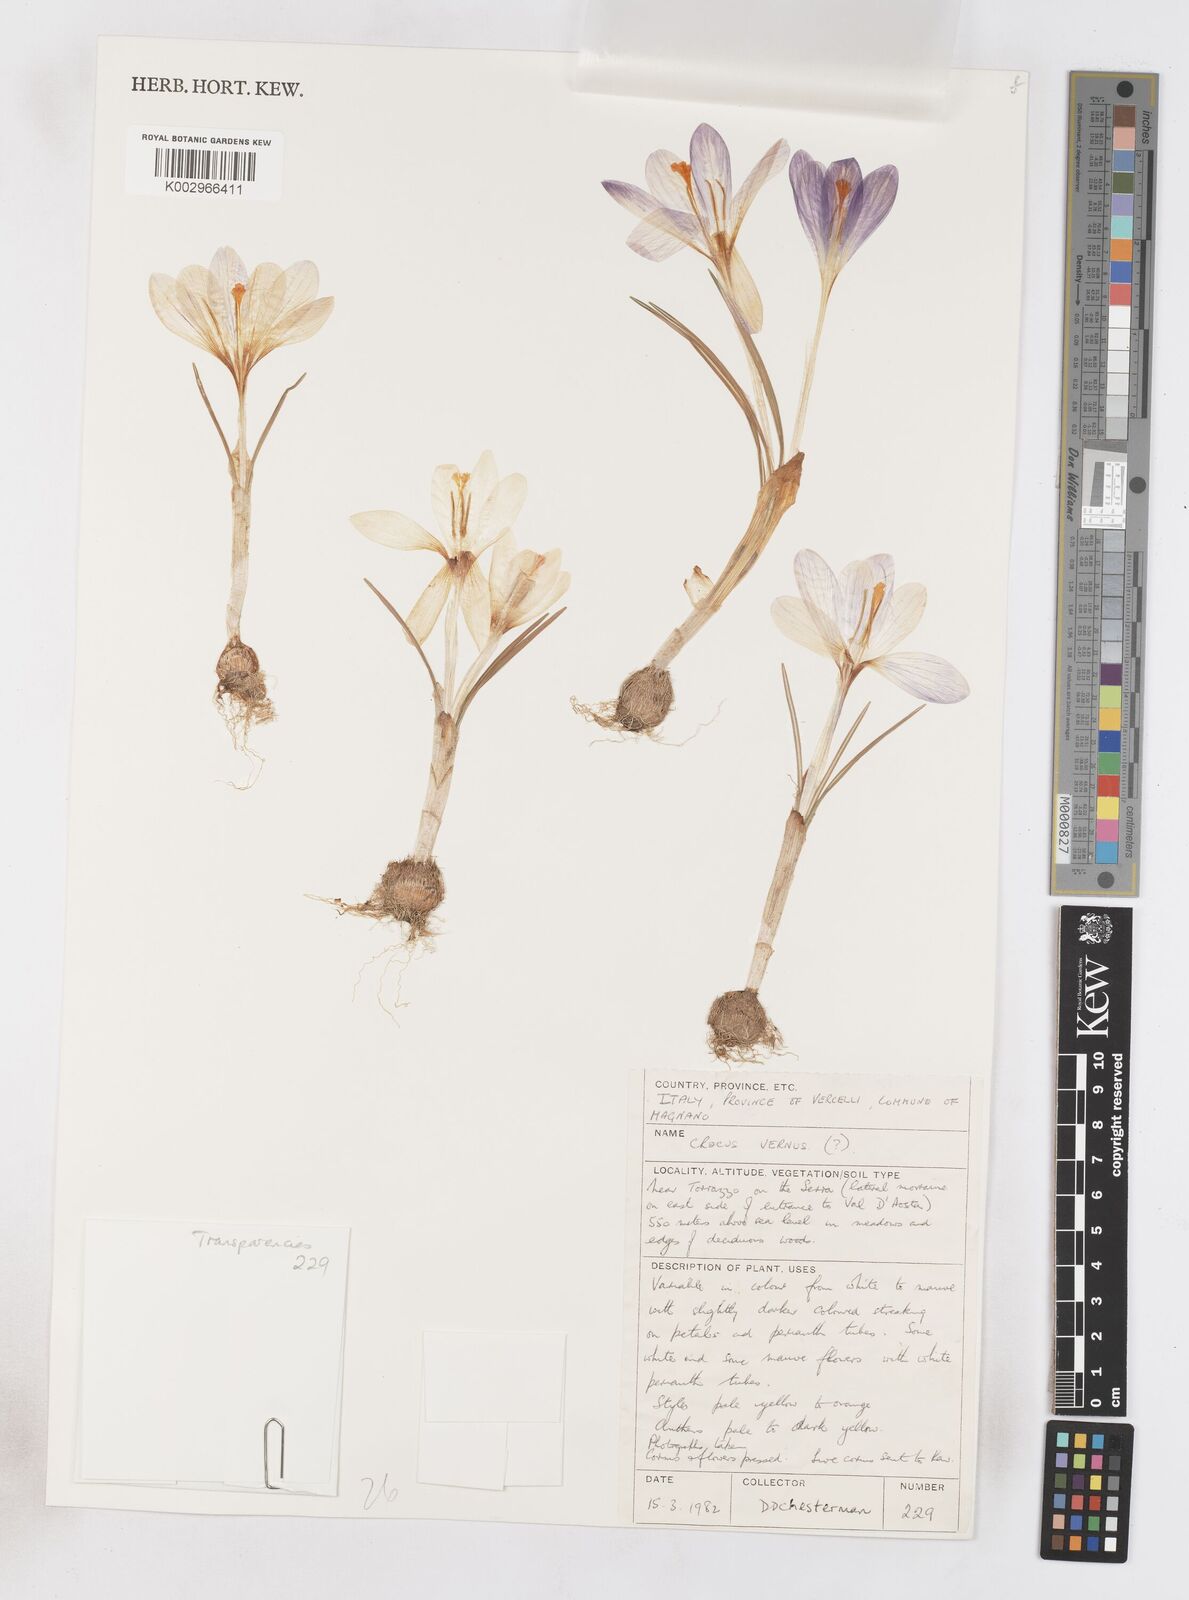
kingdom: Plantae
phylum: Tracheophyta
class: Liliopsida
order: Asparagales
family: Iridaceae
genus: Crocus
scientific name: Crocus vernus
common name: Spring crocus
